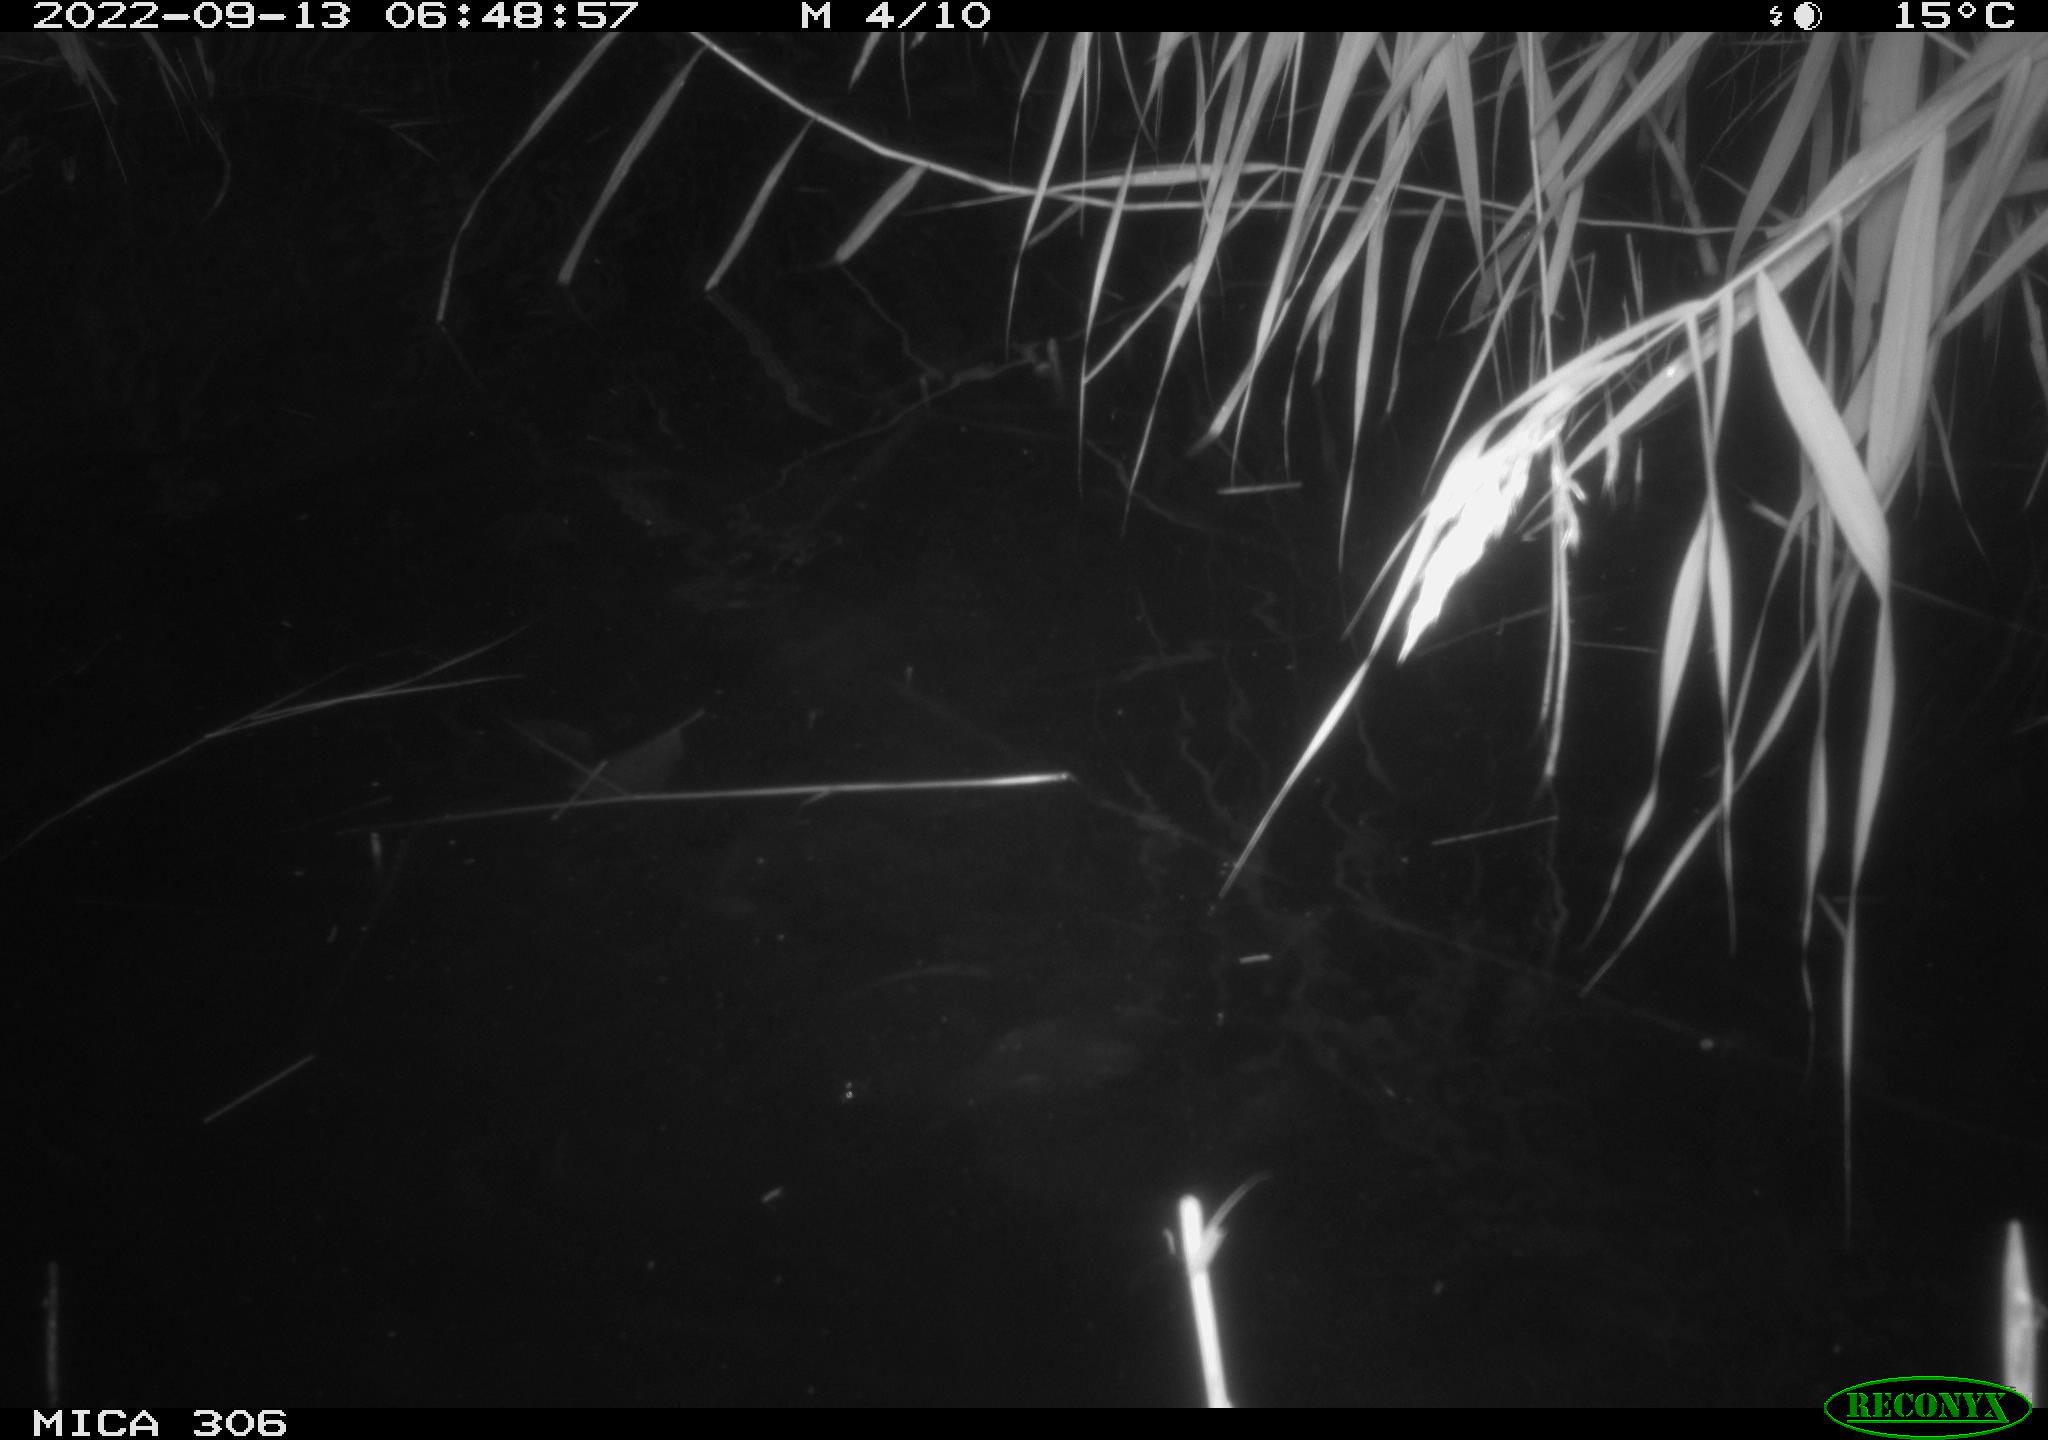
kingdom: Animalia
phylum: Chordata
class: Mammalia
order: Rodentia
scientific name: Rodentia
